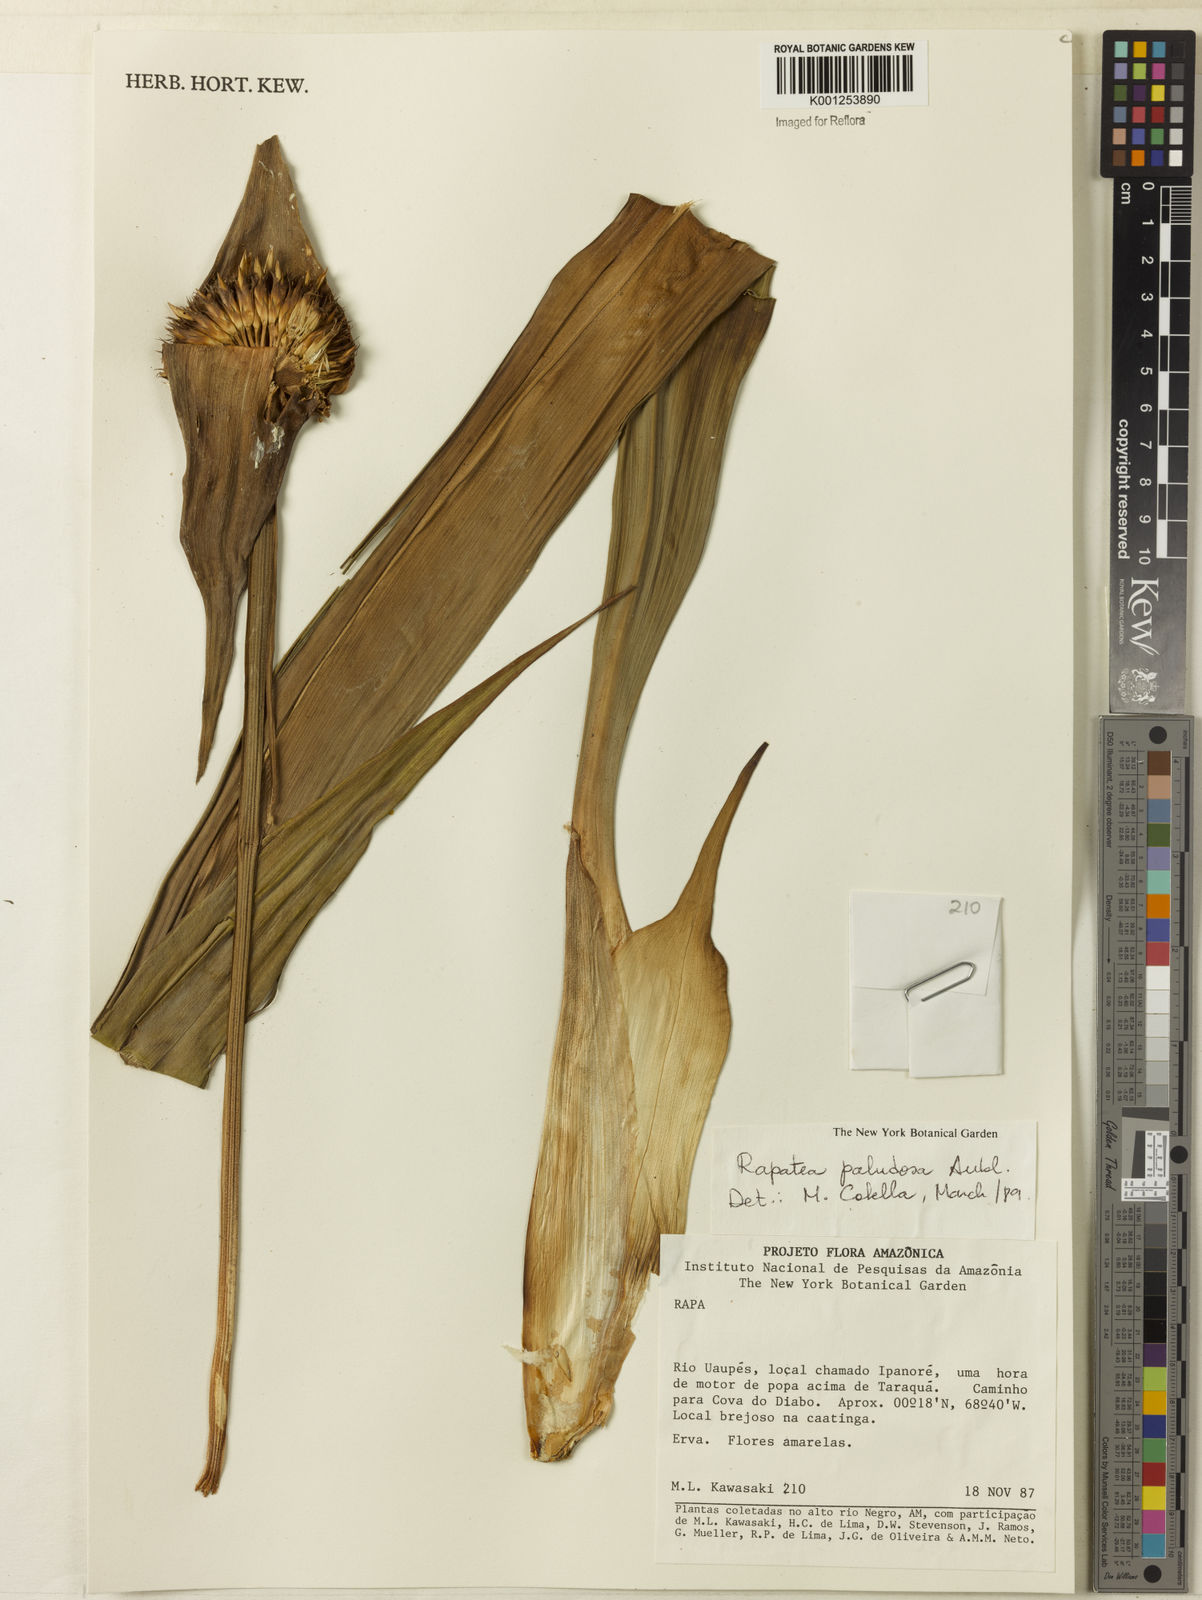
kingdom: Plantae
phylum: Tracheophyta
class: Liliopsida
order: Poales
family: Rapateaceae
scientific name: Rapateaceae
